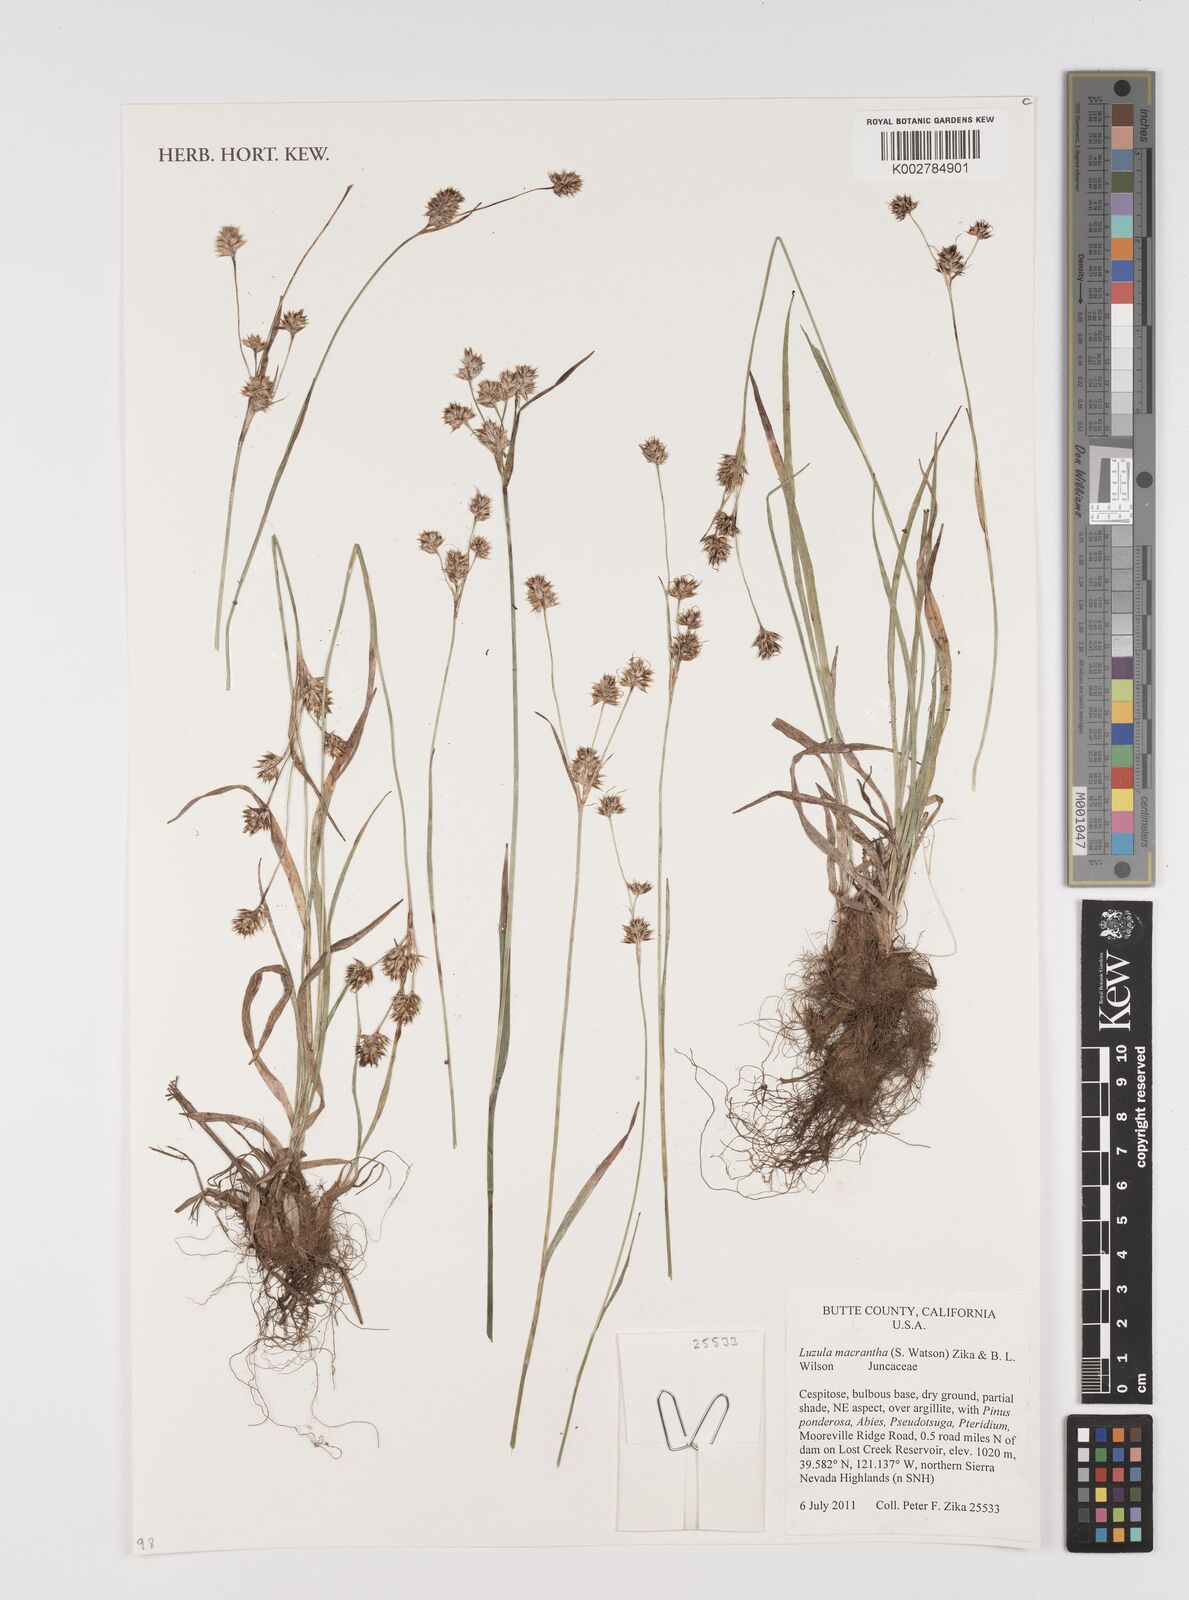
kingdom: Plantae
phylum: Tracheophyta
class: Liliopsida
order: Poales
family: Juncaceae
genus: Luzula
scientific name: Luzula macrantha
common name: Large-anthered woodrush
